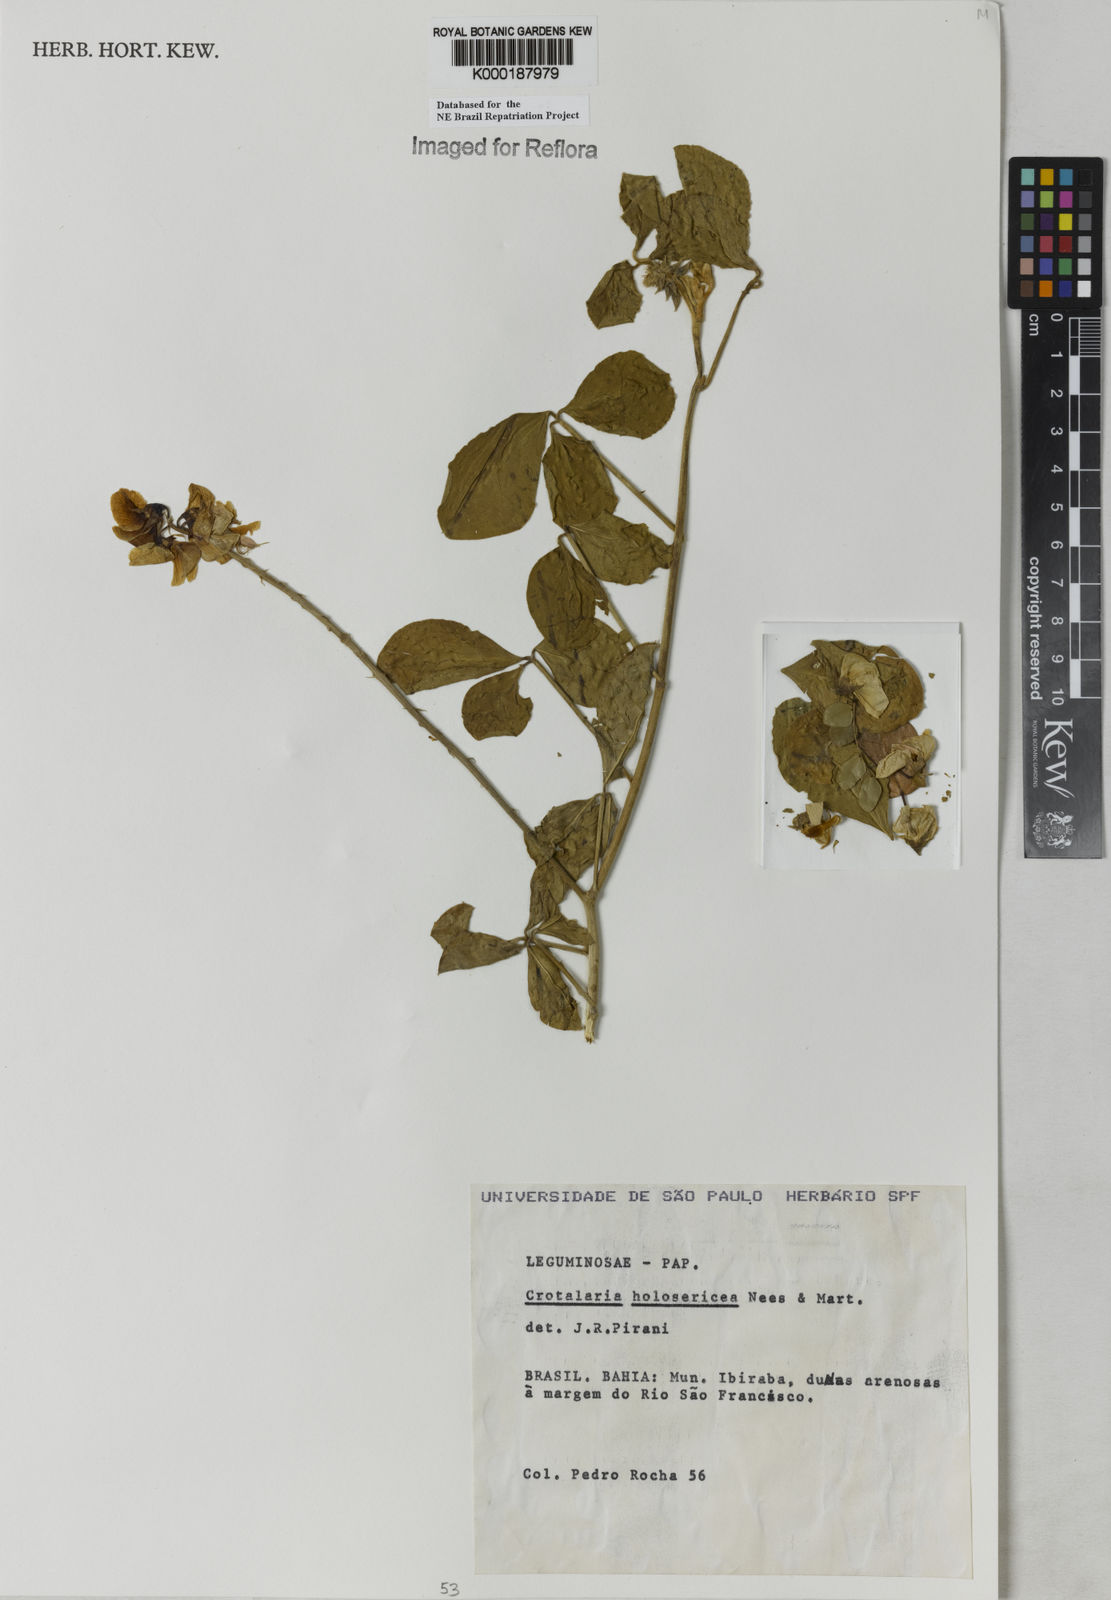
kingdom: Plantae
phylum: Tracheophyta
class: Magnoliopsida
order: Fabales
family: Fabaceae
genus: Crotalaria
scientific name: Crotalaria holosericea
